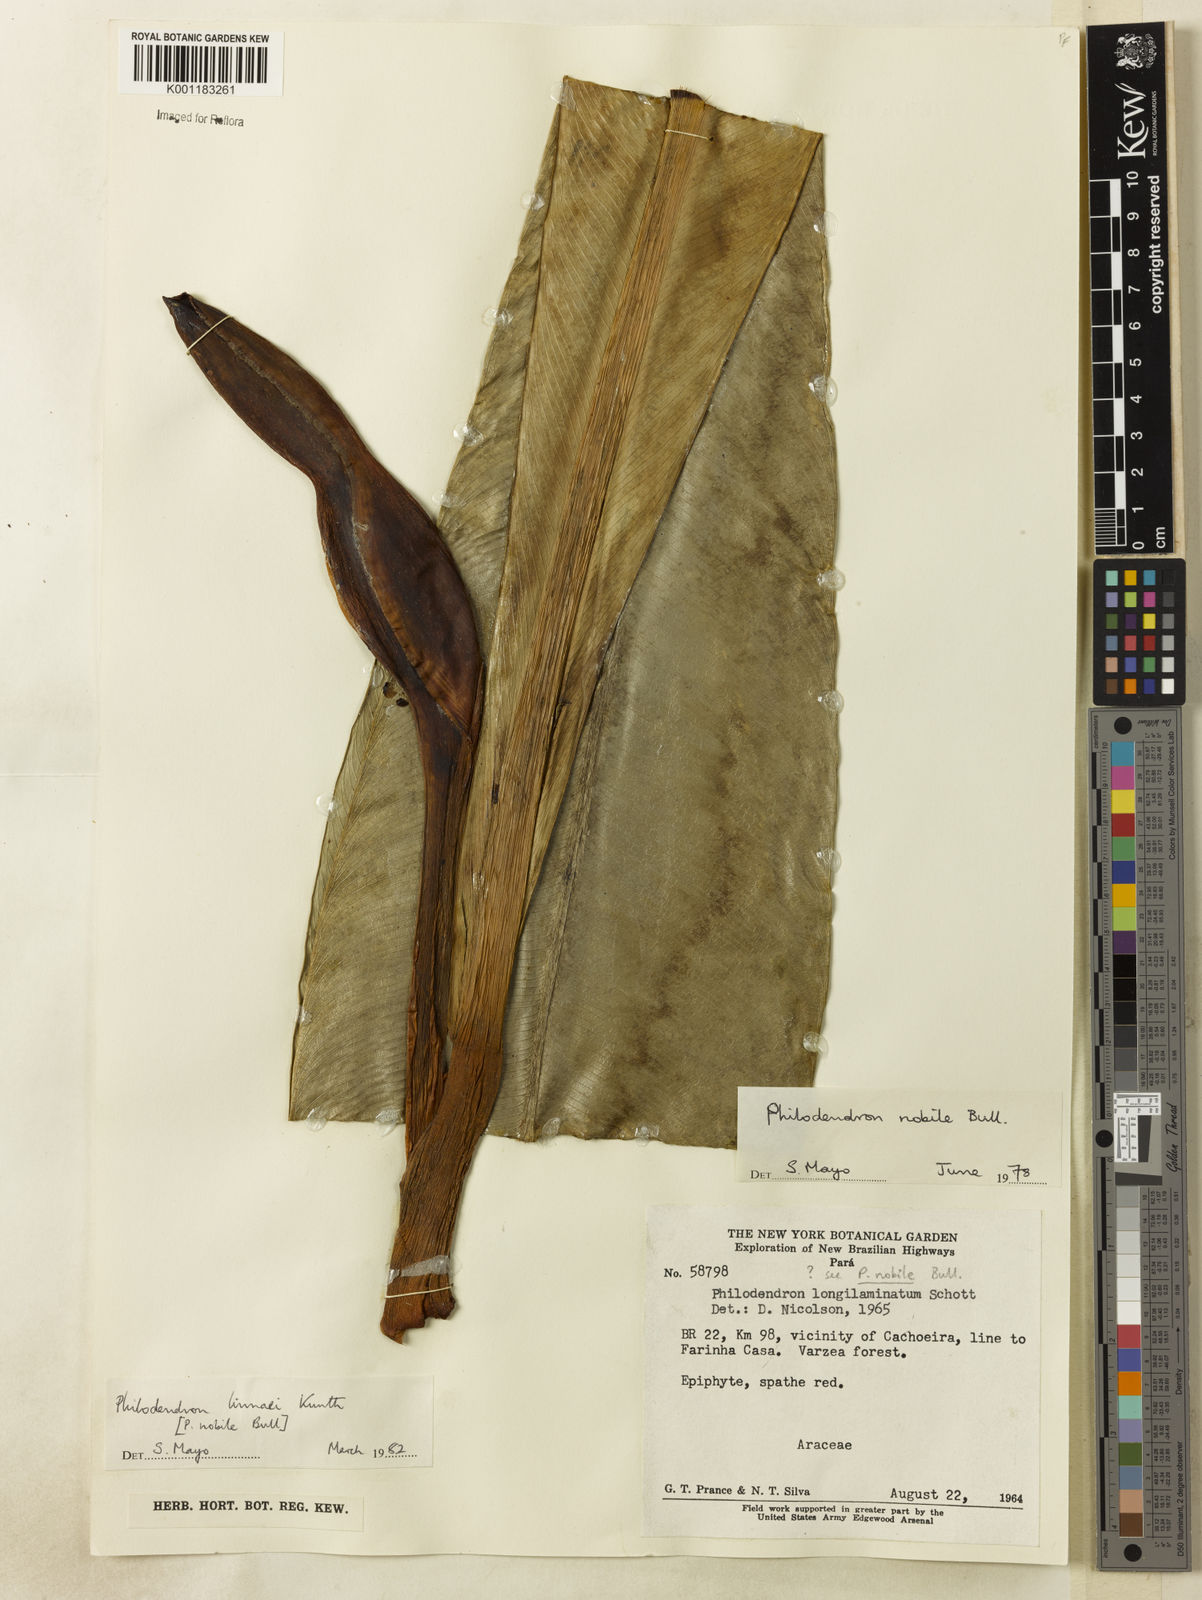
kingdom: Plantae
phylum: Tracheophyta
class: Liliopsida
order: Alismatales
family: Araceae
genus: Philodendron
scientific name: Philodendron linnaei
